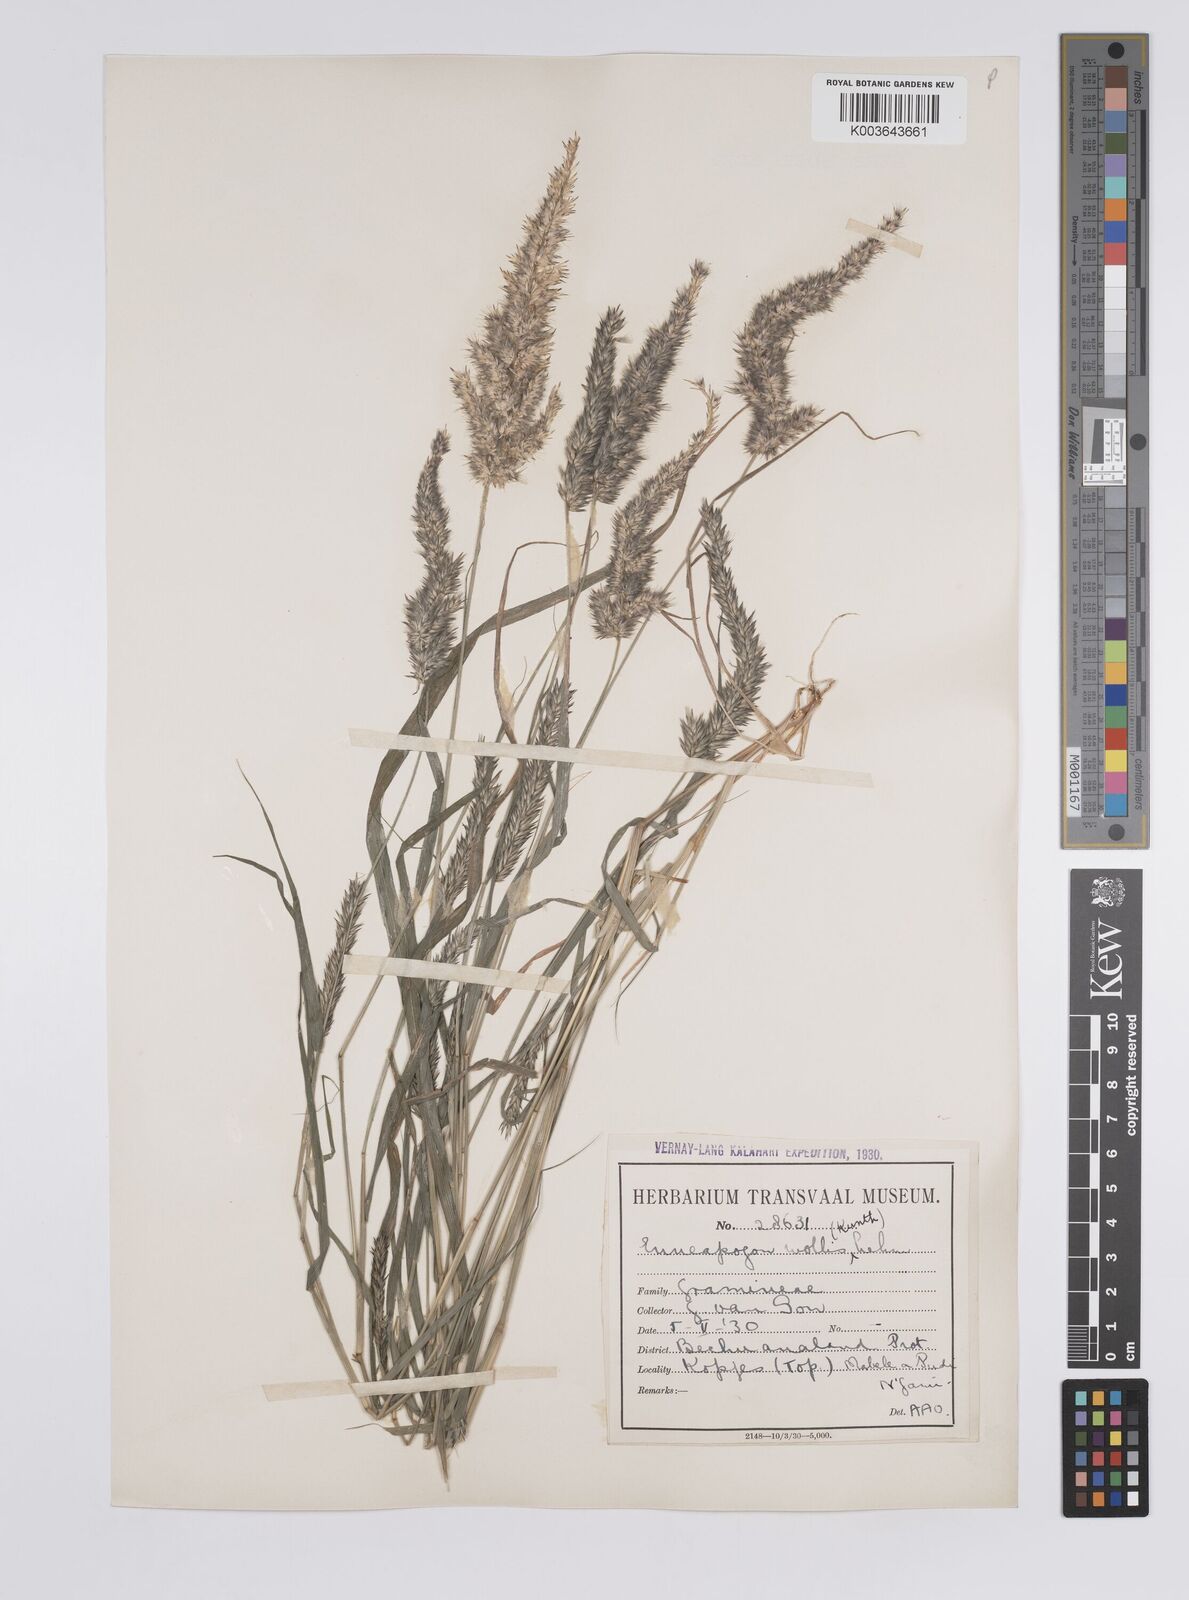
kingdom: Plantae
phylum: Tracheophyta
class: Liliopsida
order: Poales
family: Poaceae
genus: Enneapogon
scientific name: Enneapogon cenchroides
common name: Soft feather pappusgrass
